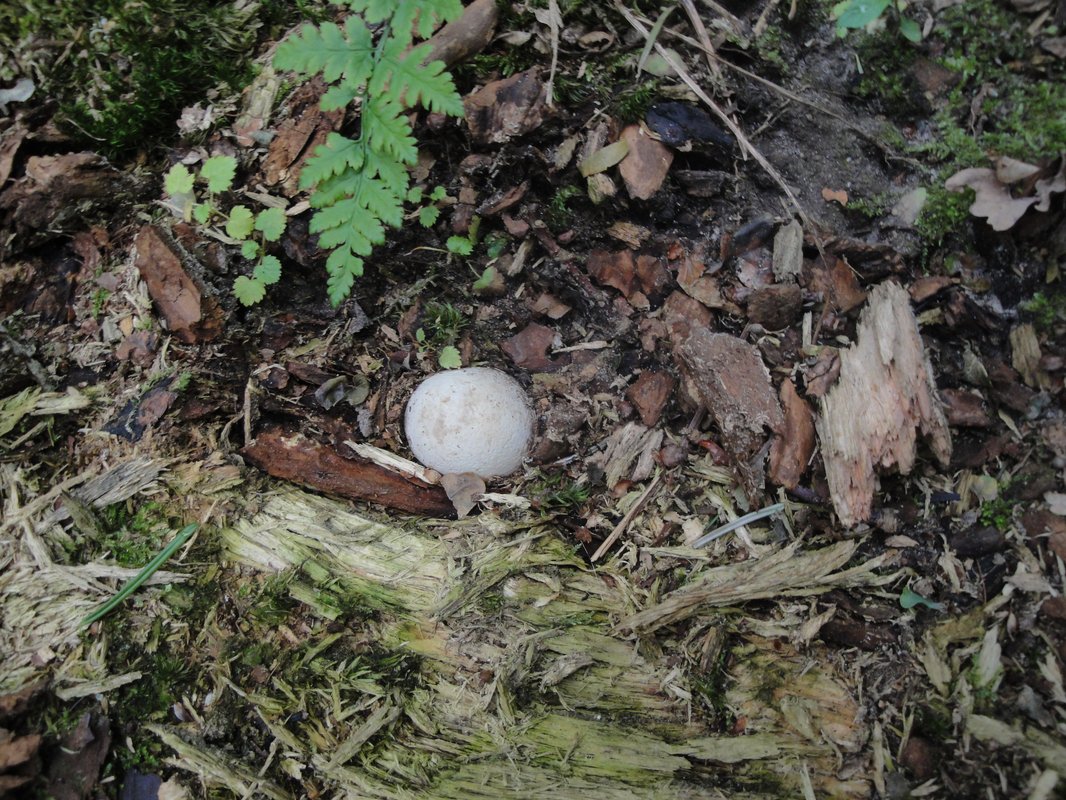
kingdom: Fungi
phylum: Basidiomycota
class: Agaricomycetes
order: Phallales
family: Phallaceae
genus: Phallus
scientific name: Phallus impudicus
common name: almindelig stinksvamp
